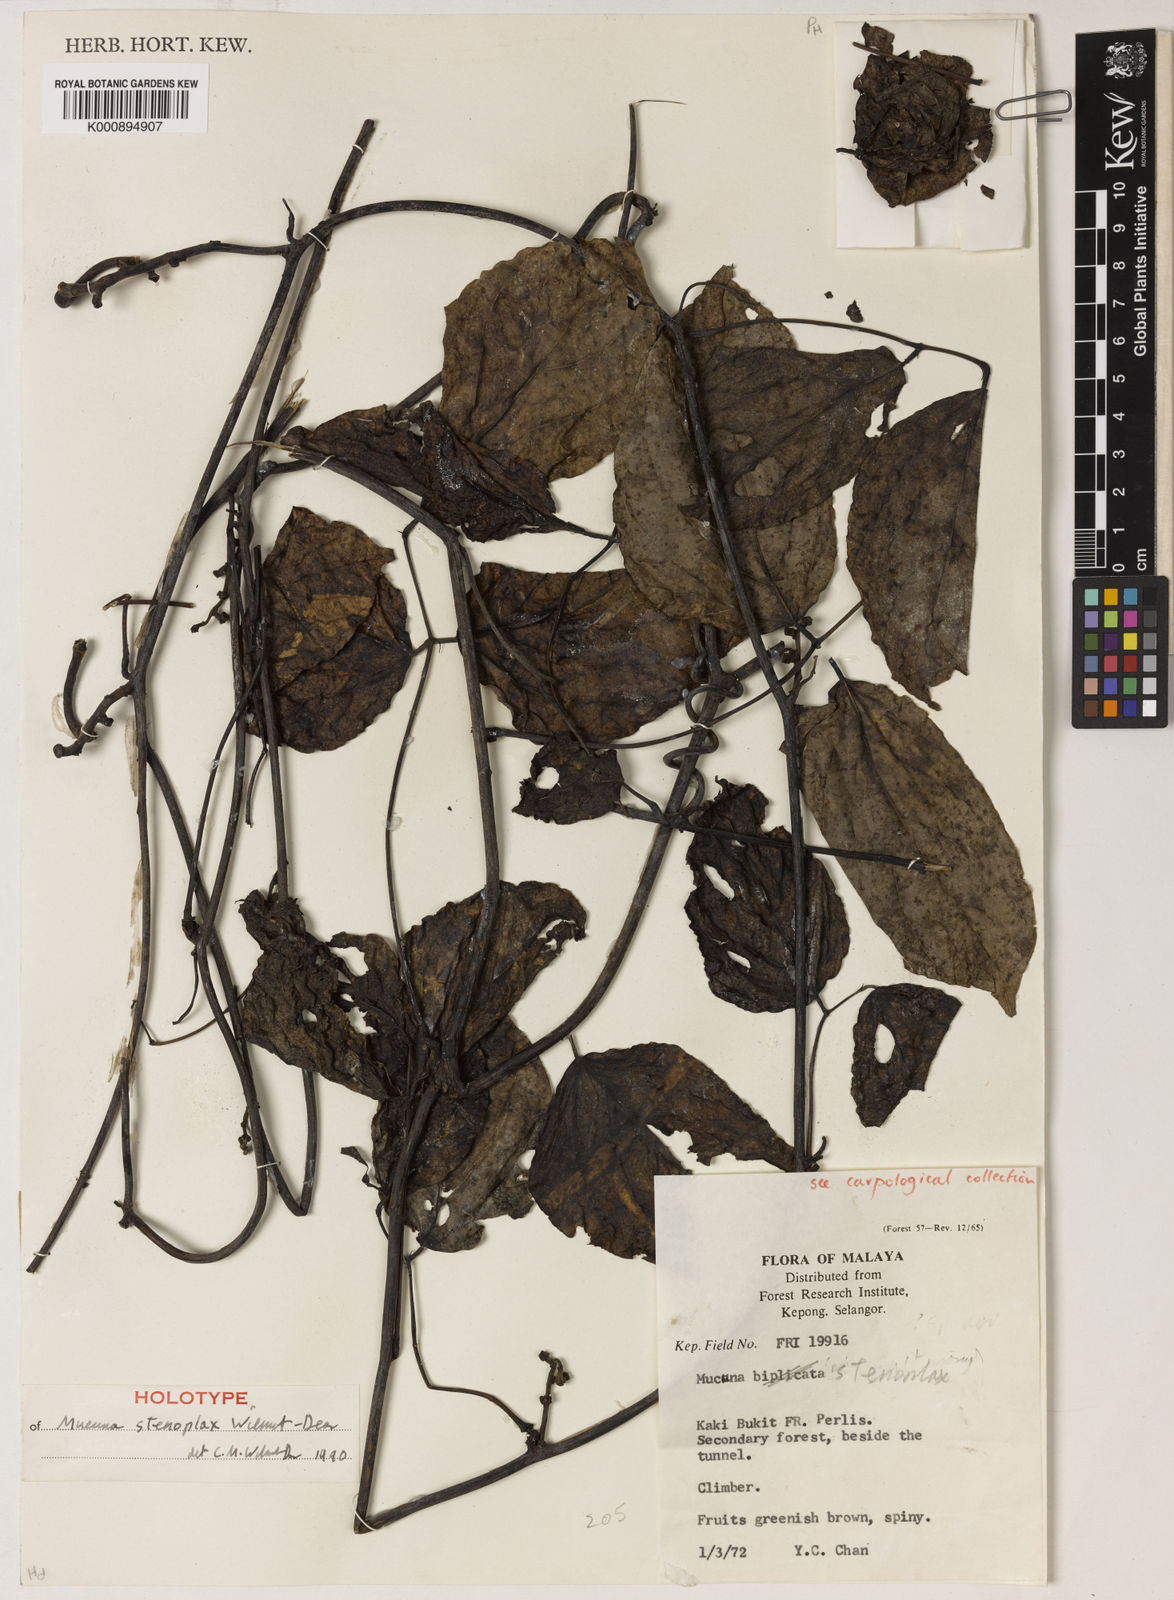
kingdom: Plantae
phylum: Tracheophyta
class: Magnoliopsida
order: Fabales
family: Fabaceae
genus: Mucuna
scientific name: Mucuna stenoplax
